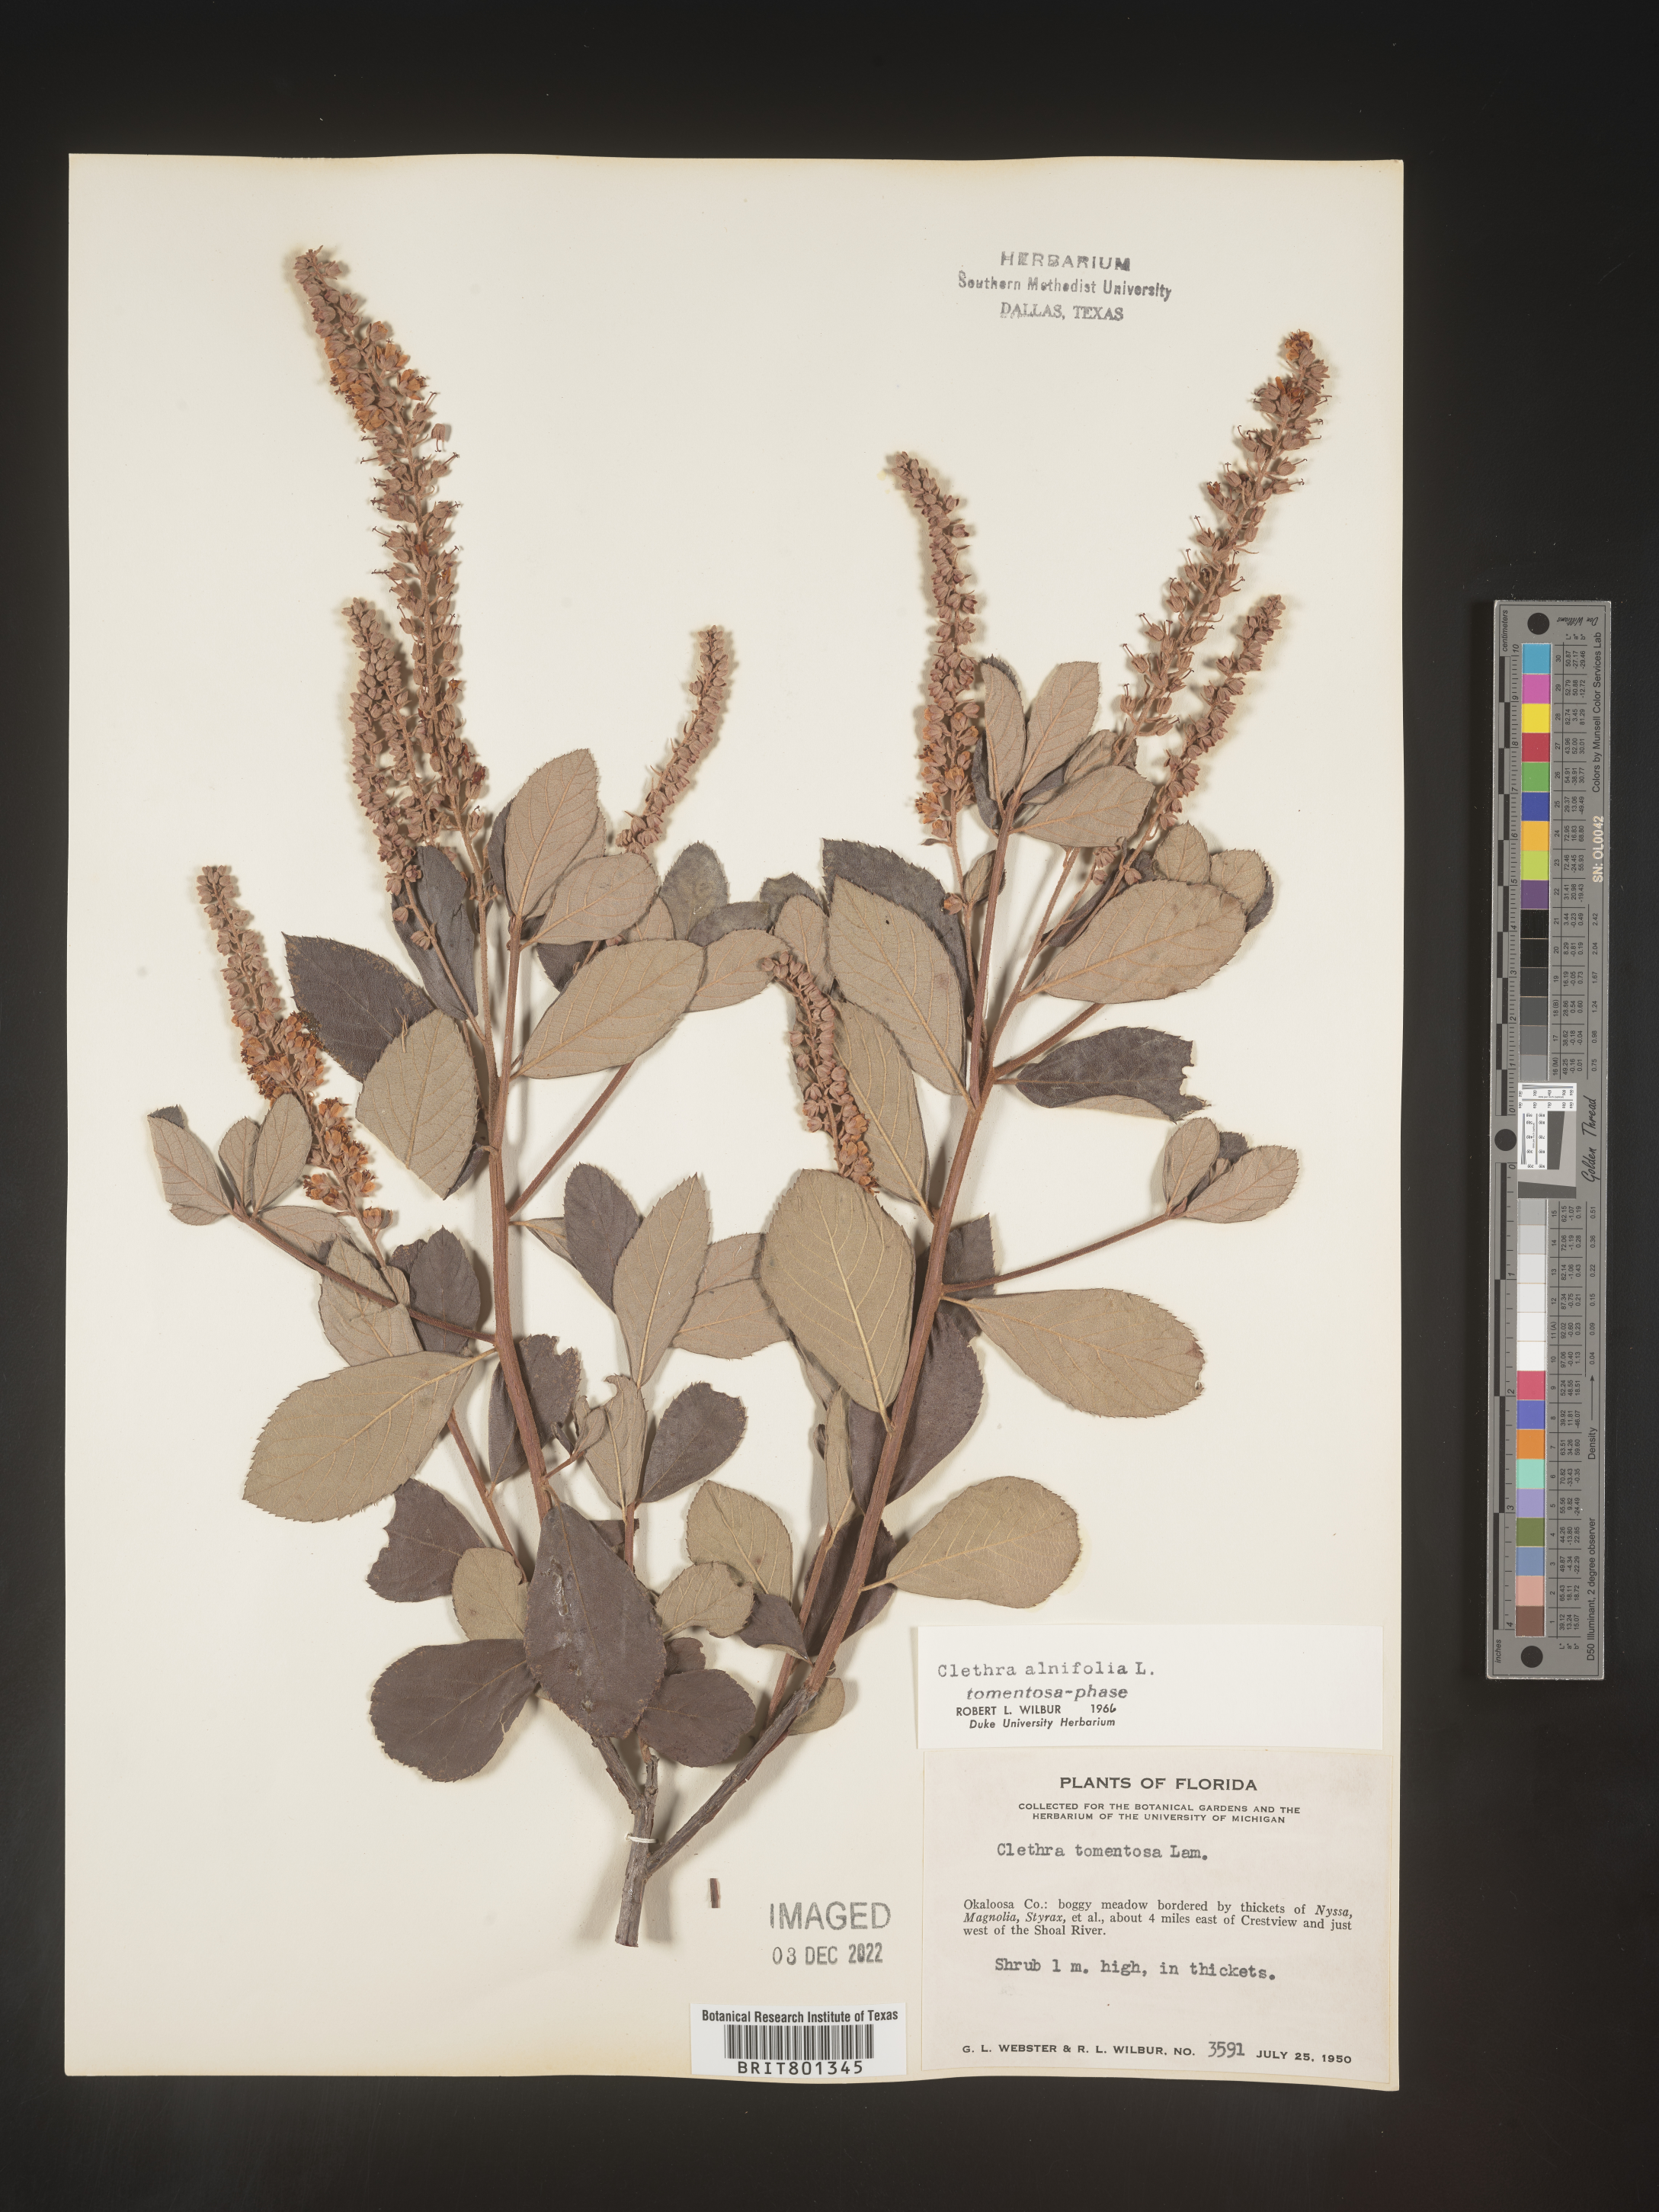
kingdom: Plantae
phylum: Tracheophyta
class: Magnoliopsida
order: Ericales
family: Clethraceae
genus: Clethra
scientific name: Clethra alnifolia
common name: Sweet pepperbush
